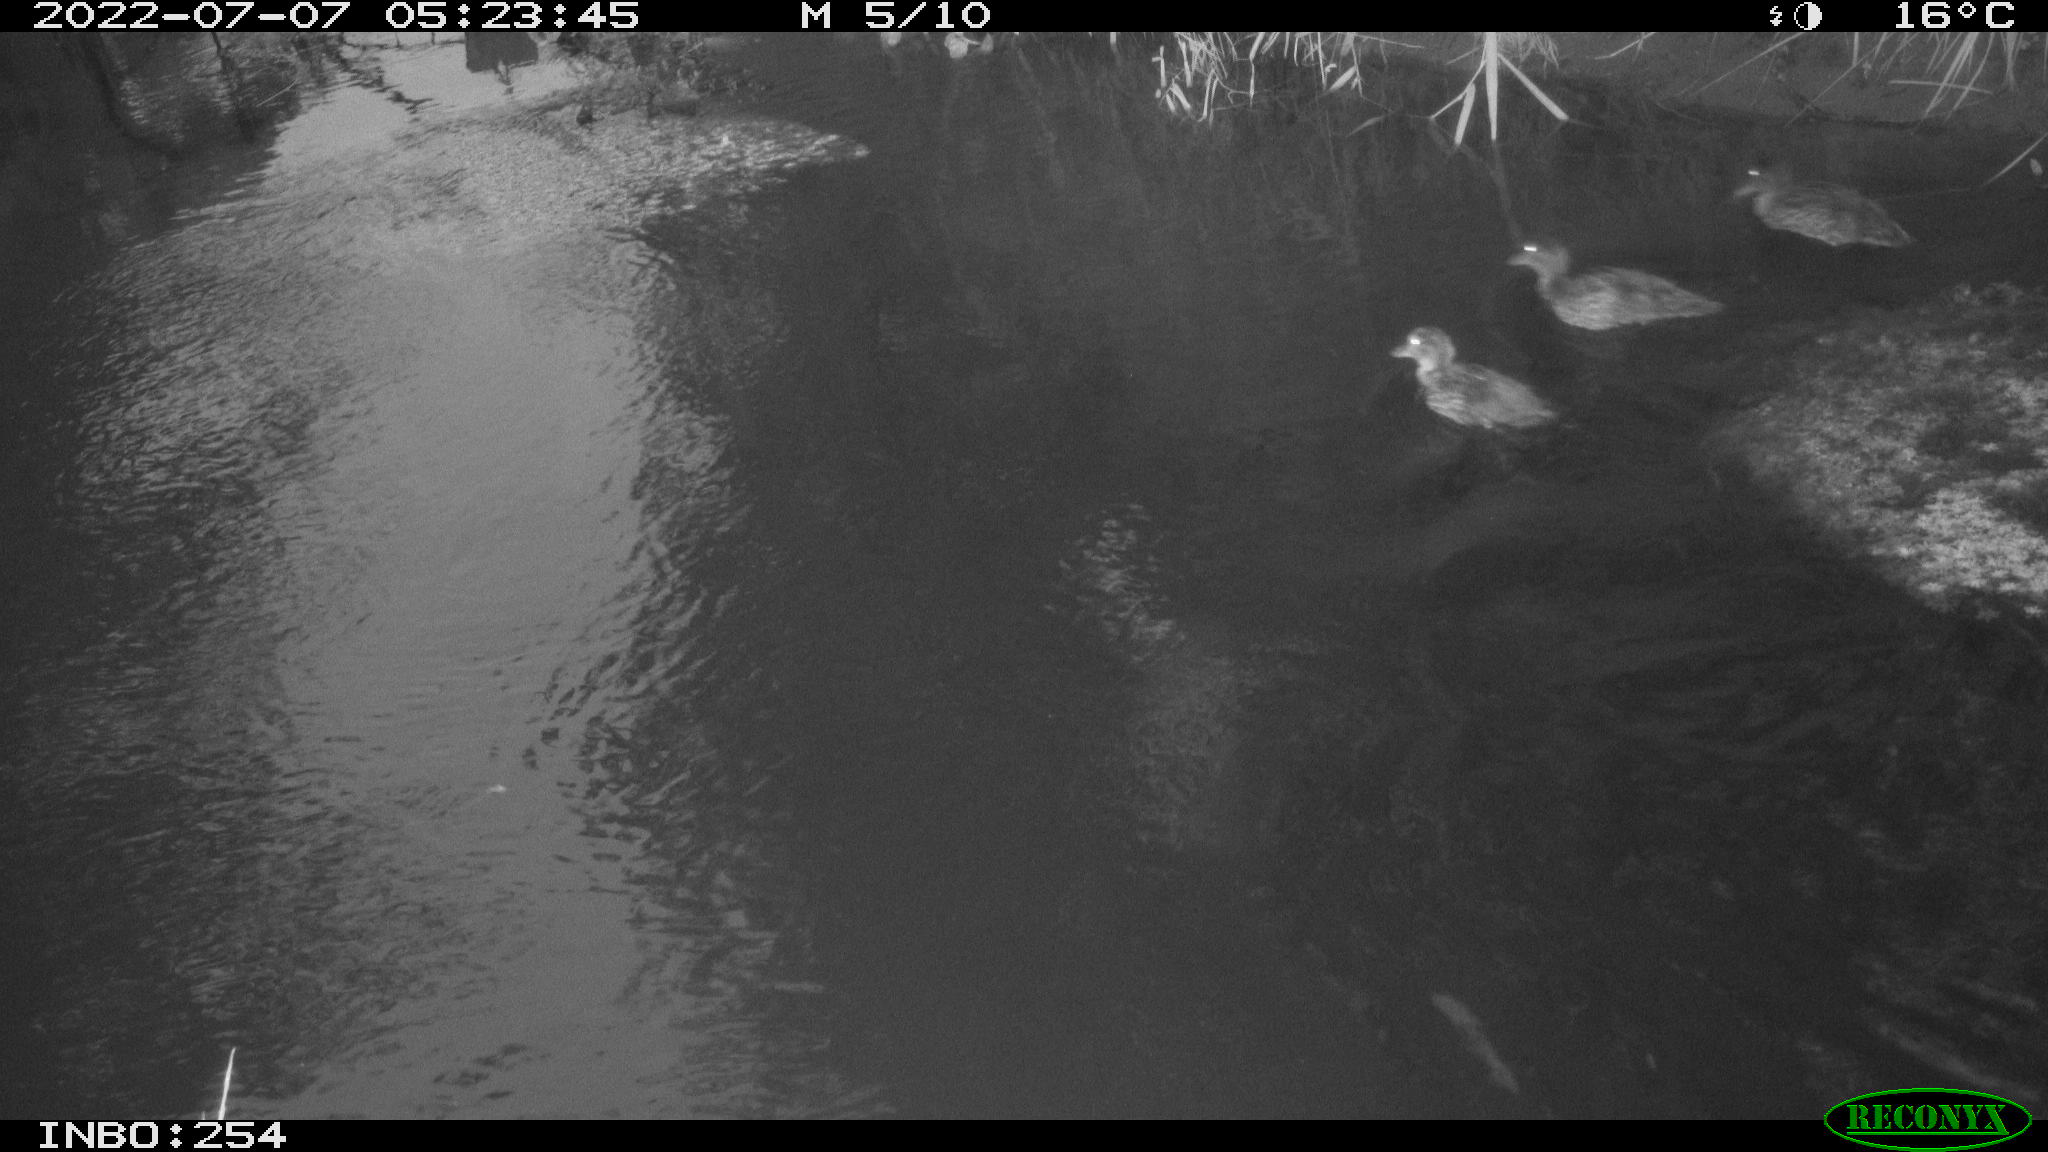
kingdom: Animalia
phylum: Chordata
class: Aves
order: Anseriformes
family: Anatidae
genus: Anas
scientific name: Anas platyrhynchos
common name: Mallard
